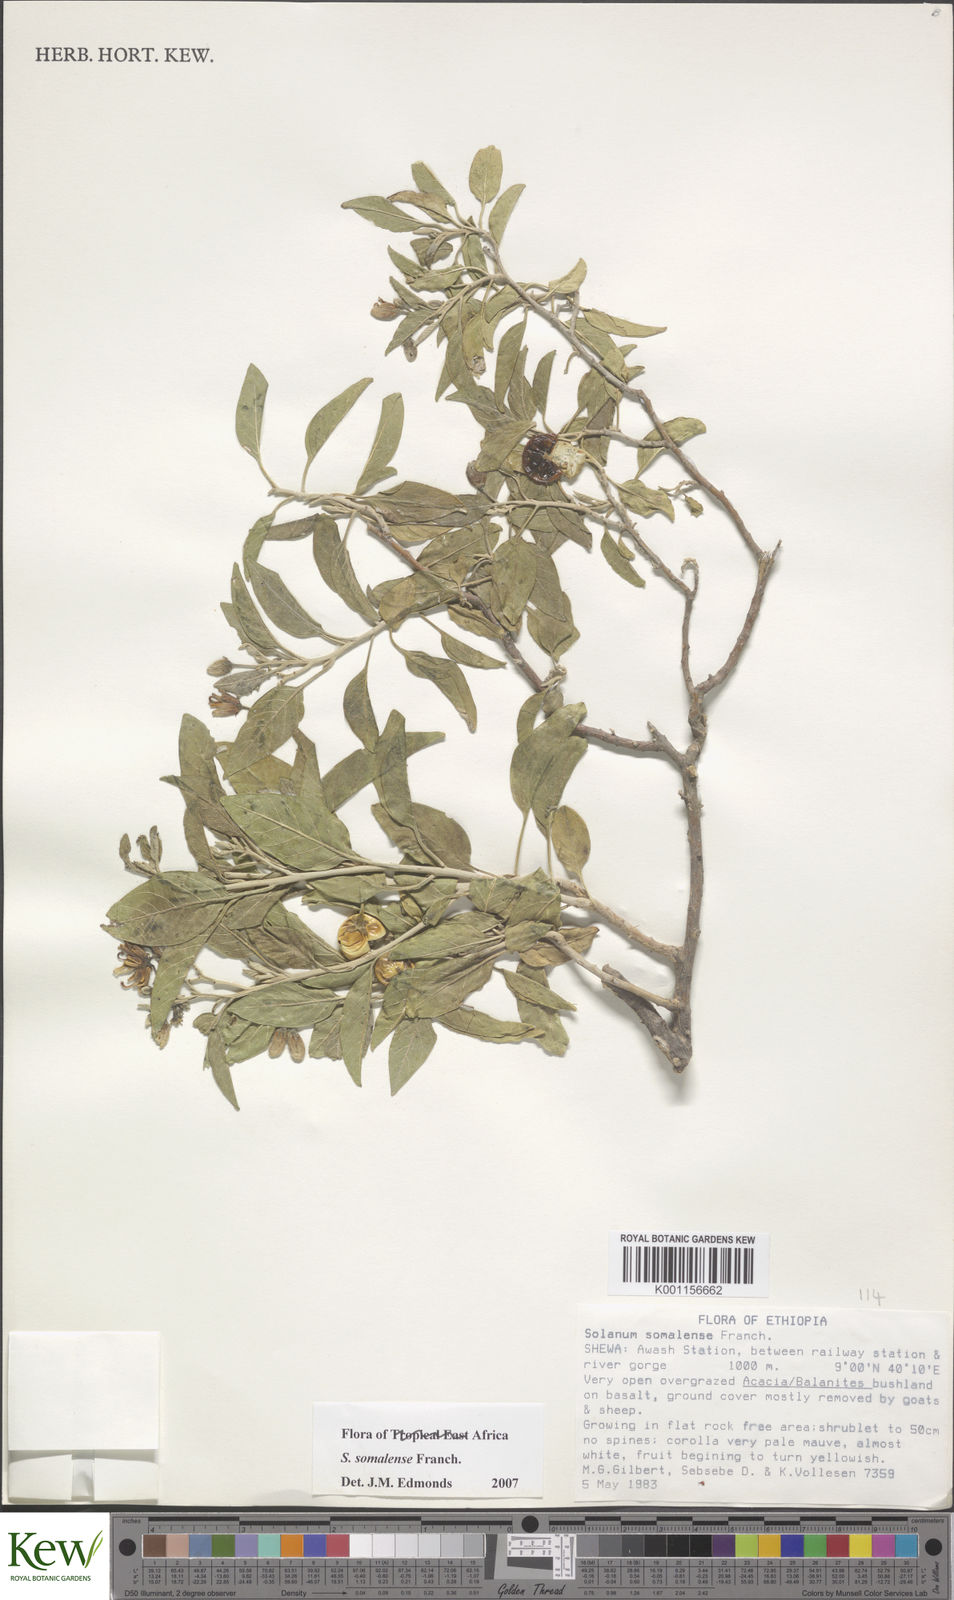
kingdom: Plantae
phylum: Tracheophyta
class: Magnoliopsida
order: Solanales
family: Solanaceae
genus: Solanum
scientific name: Solanum somalense
